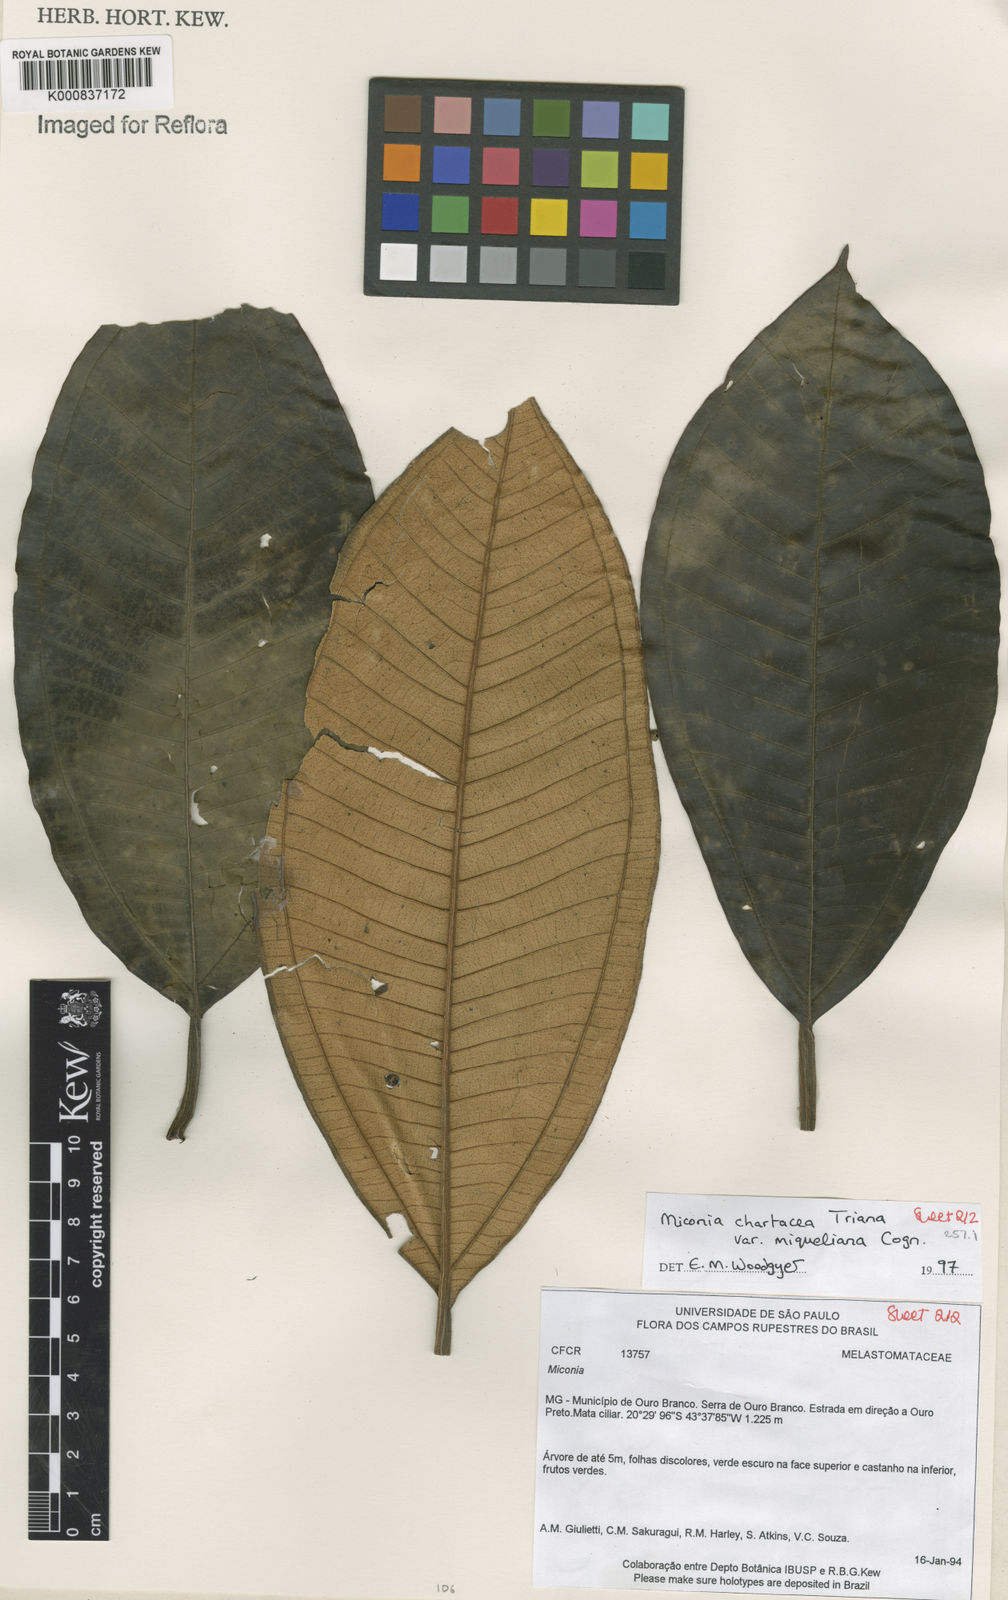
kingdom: Plantae
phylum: Tracheophyta
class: Magnoliopsida
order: Myrtales
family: Melastomataceae
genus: Miconia
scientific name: Miconia chartacea
